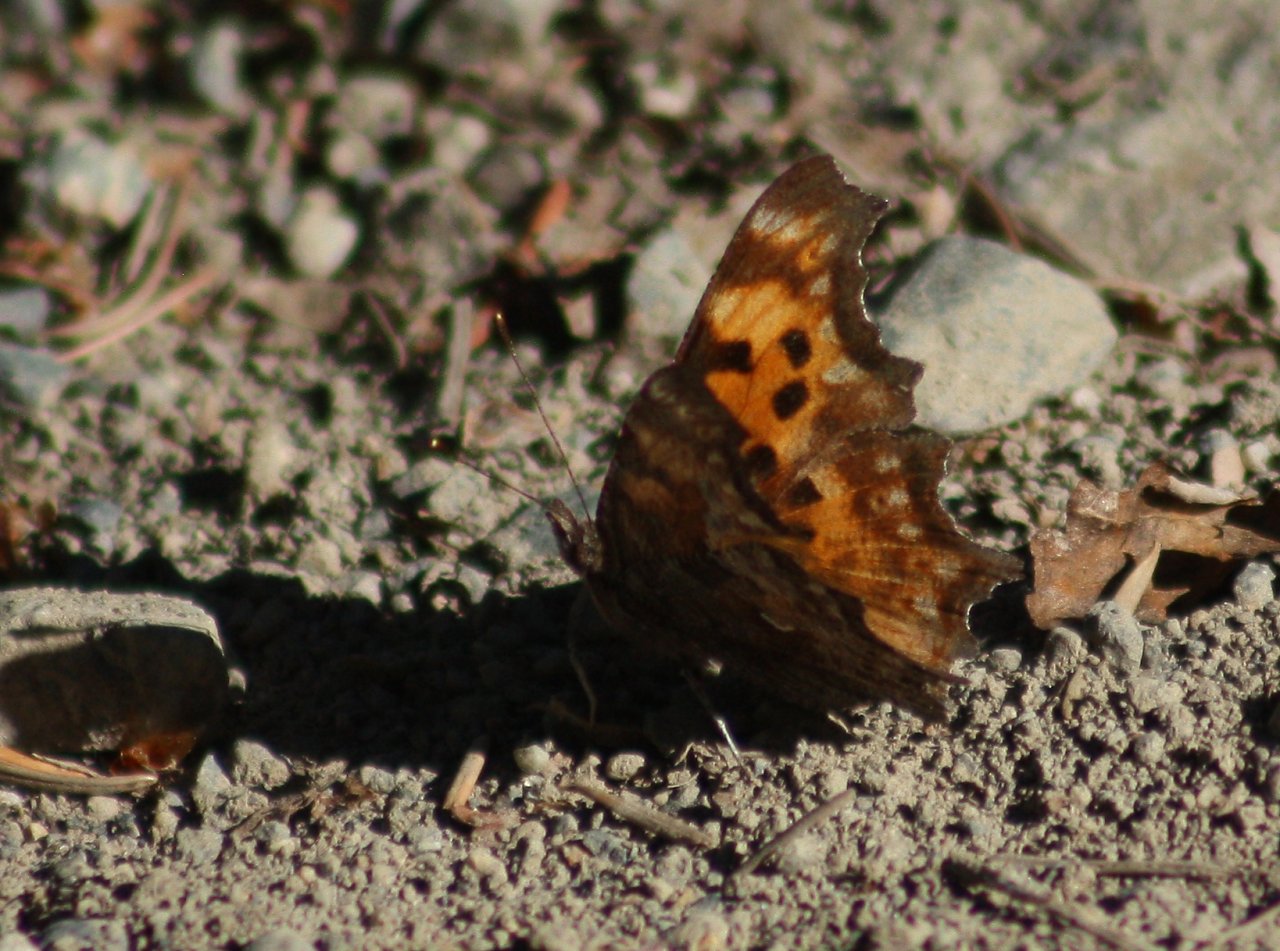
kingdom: Animalia
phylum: Arthropoda
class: Insecta
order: Lepidoptera
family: Nymphalidae
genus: Polygonia
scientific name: Polygonia progne
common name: Gray Comma
